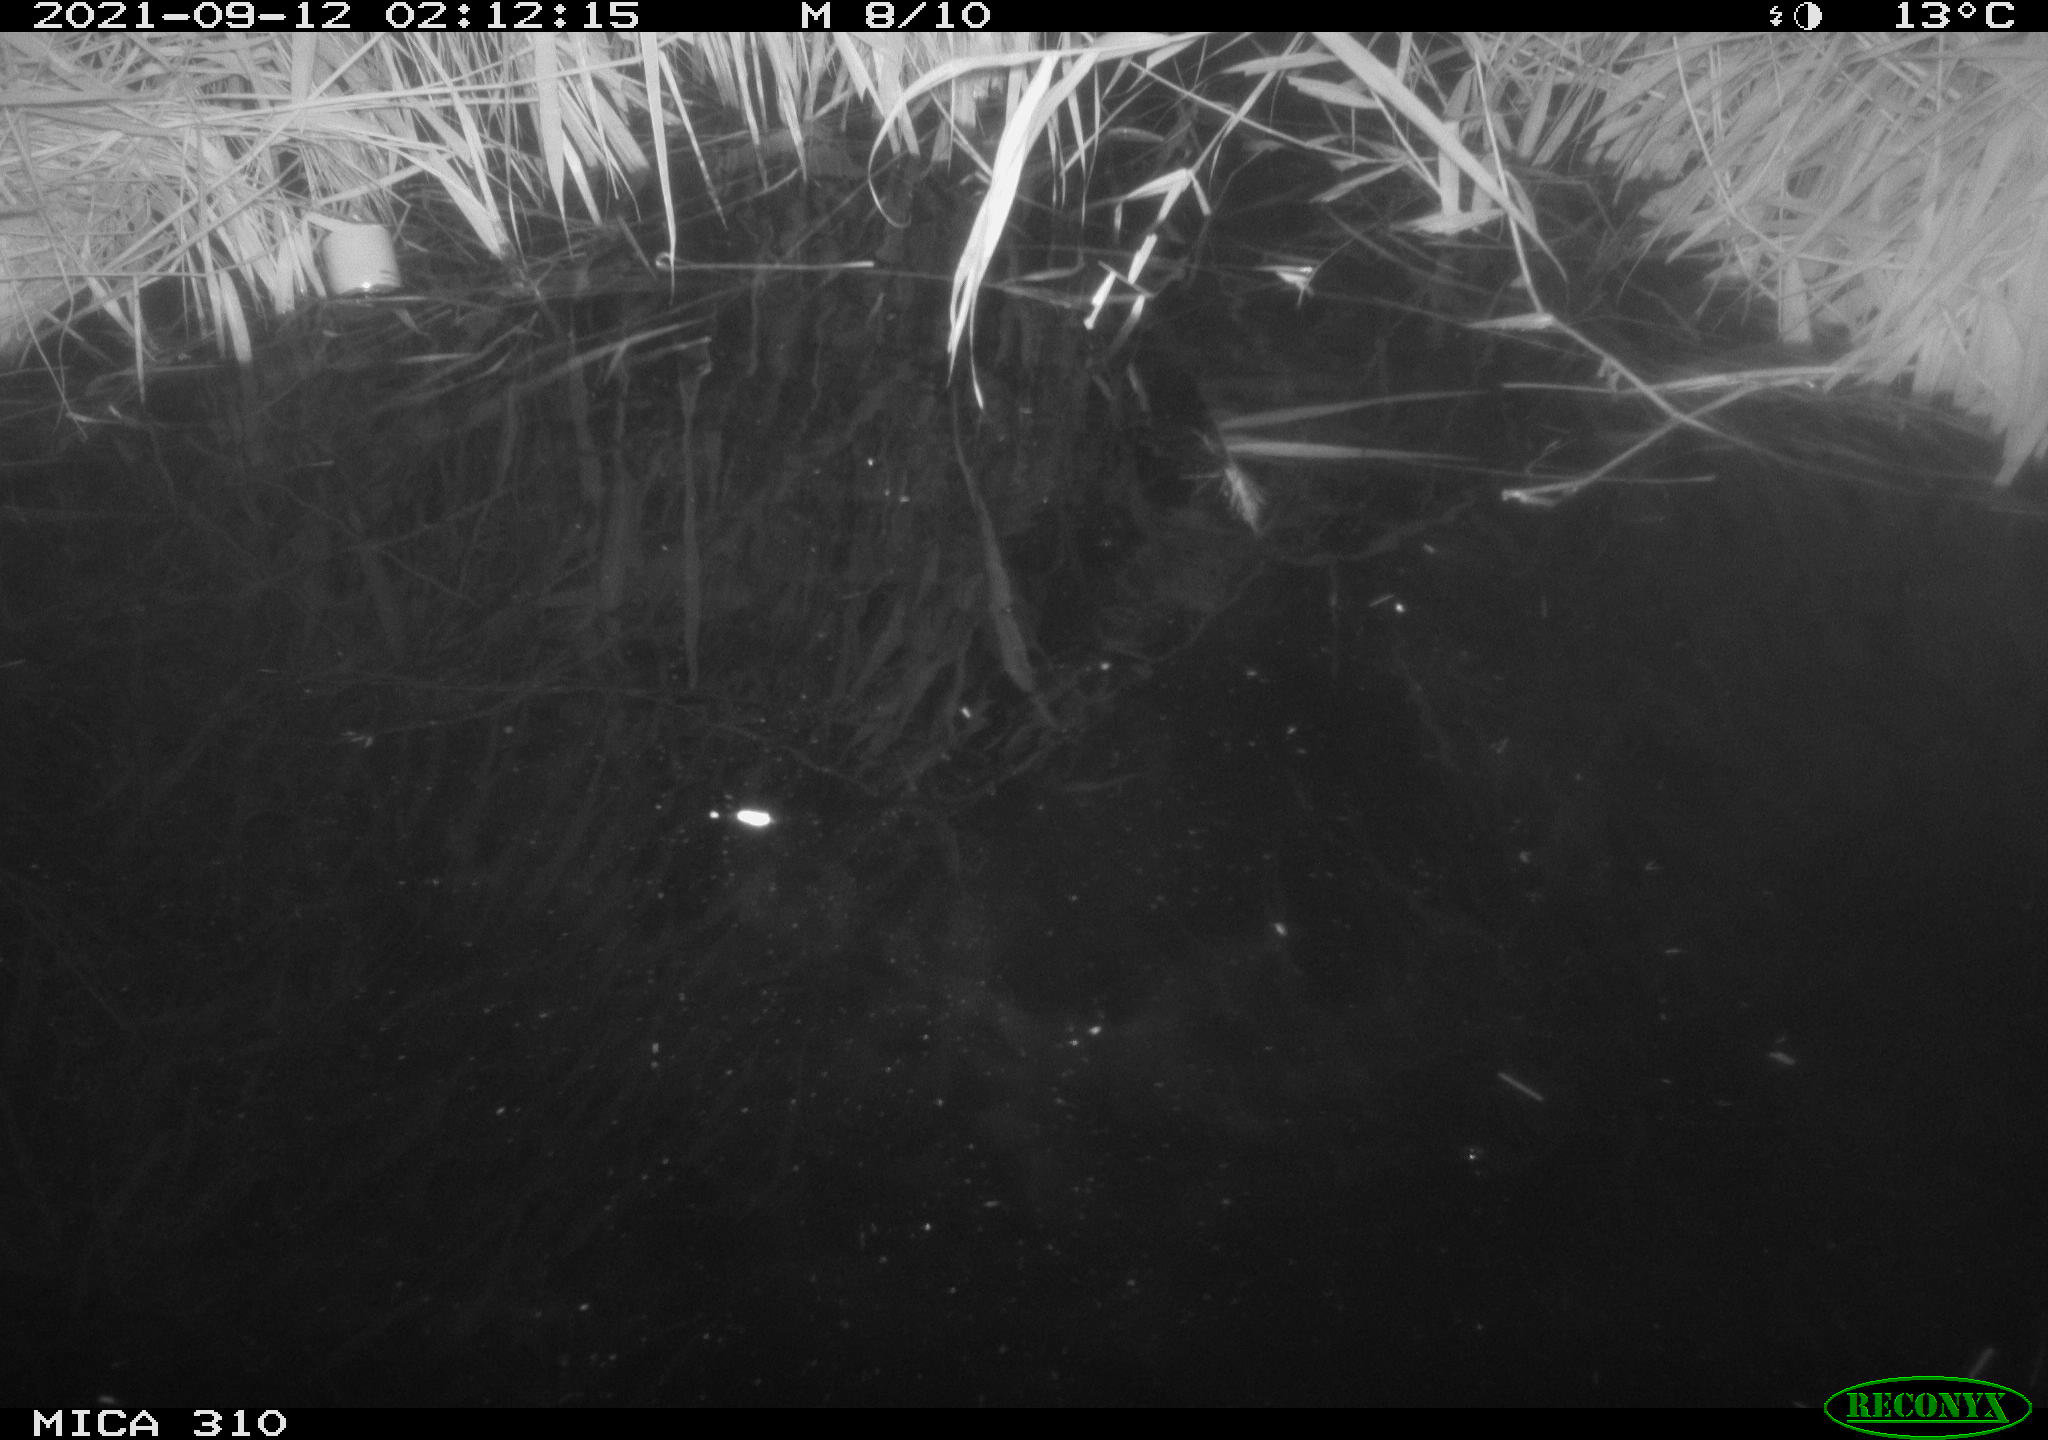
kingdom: Animalia
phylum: Chordata
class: Aves
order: Anseriformes
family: Anatidae
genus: Mareca
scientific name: Mareca strepera
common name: Gadwall
